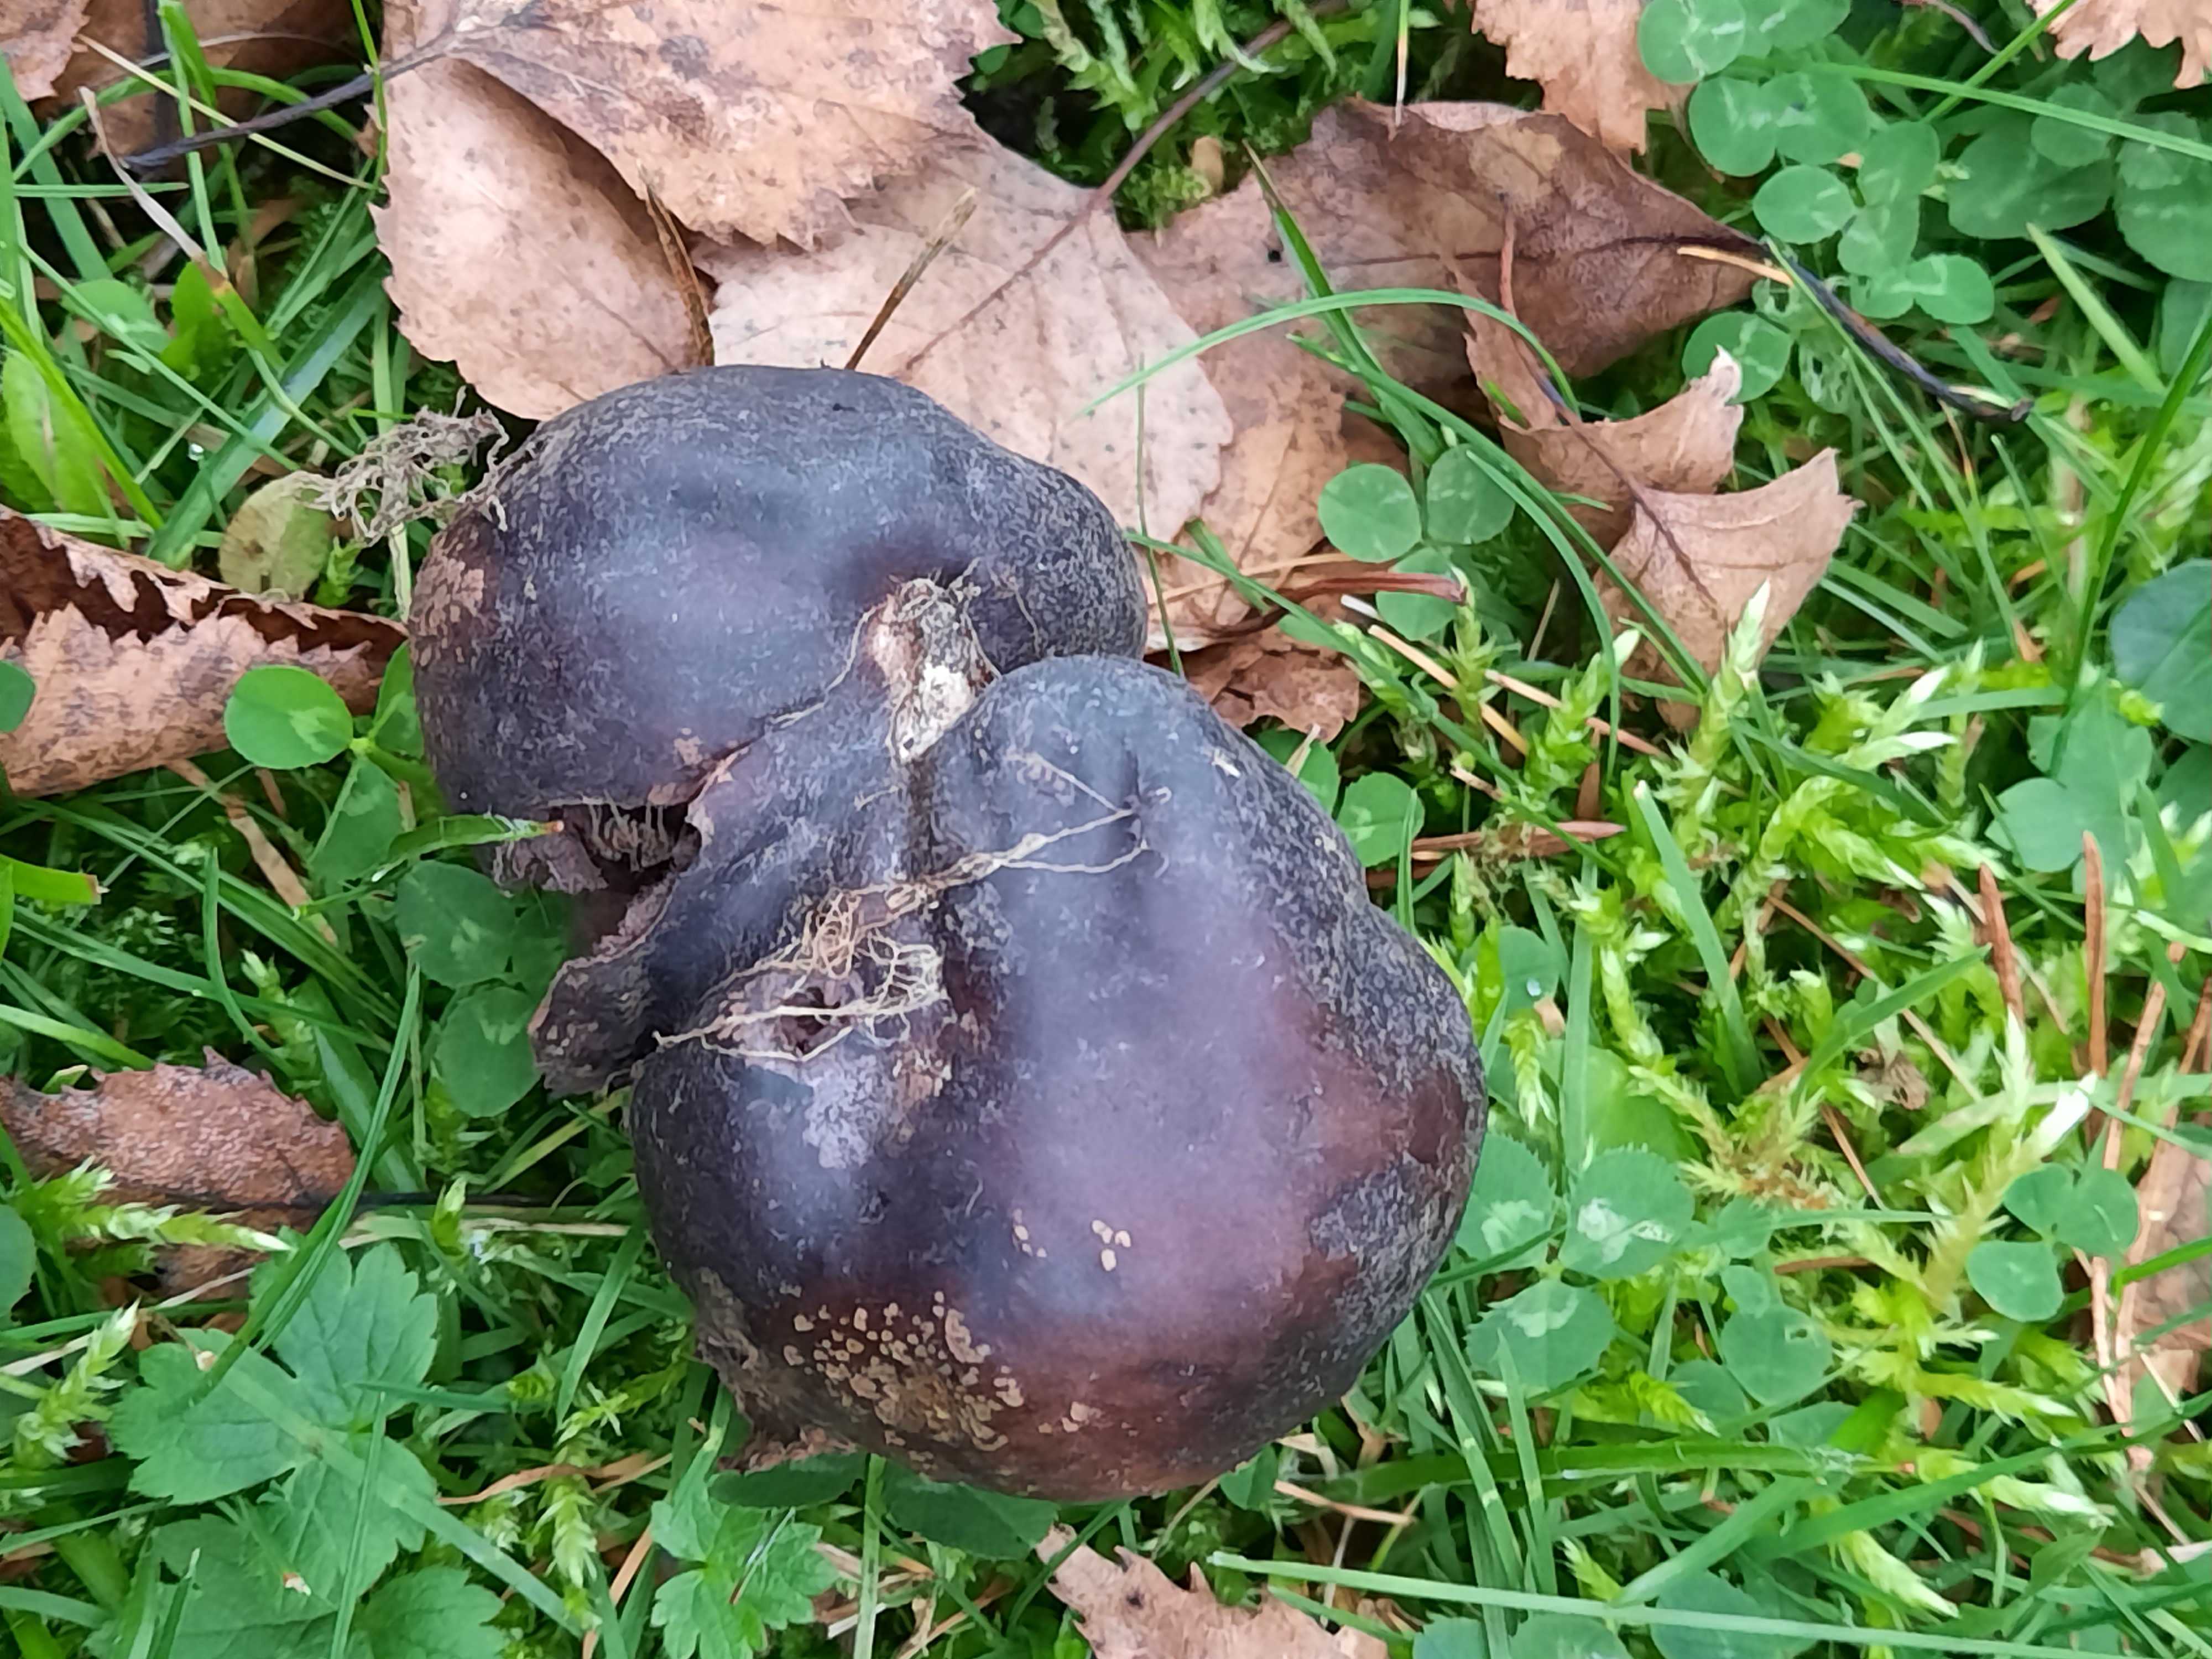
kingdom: Fungi
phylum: Basidiomycota
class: Agaricomycetes
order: Agaricales
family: Lycoperdaceae
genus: Bovista
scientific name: Bovista nigrescens
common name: sortagtig bovist
